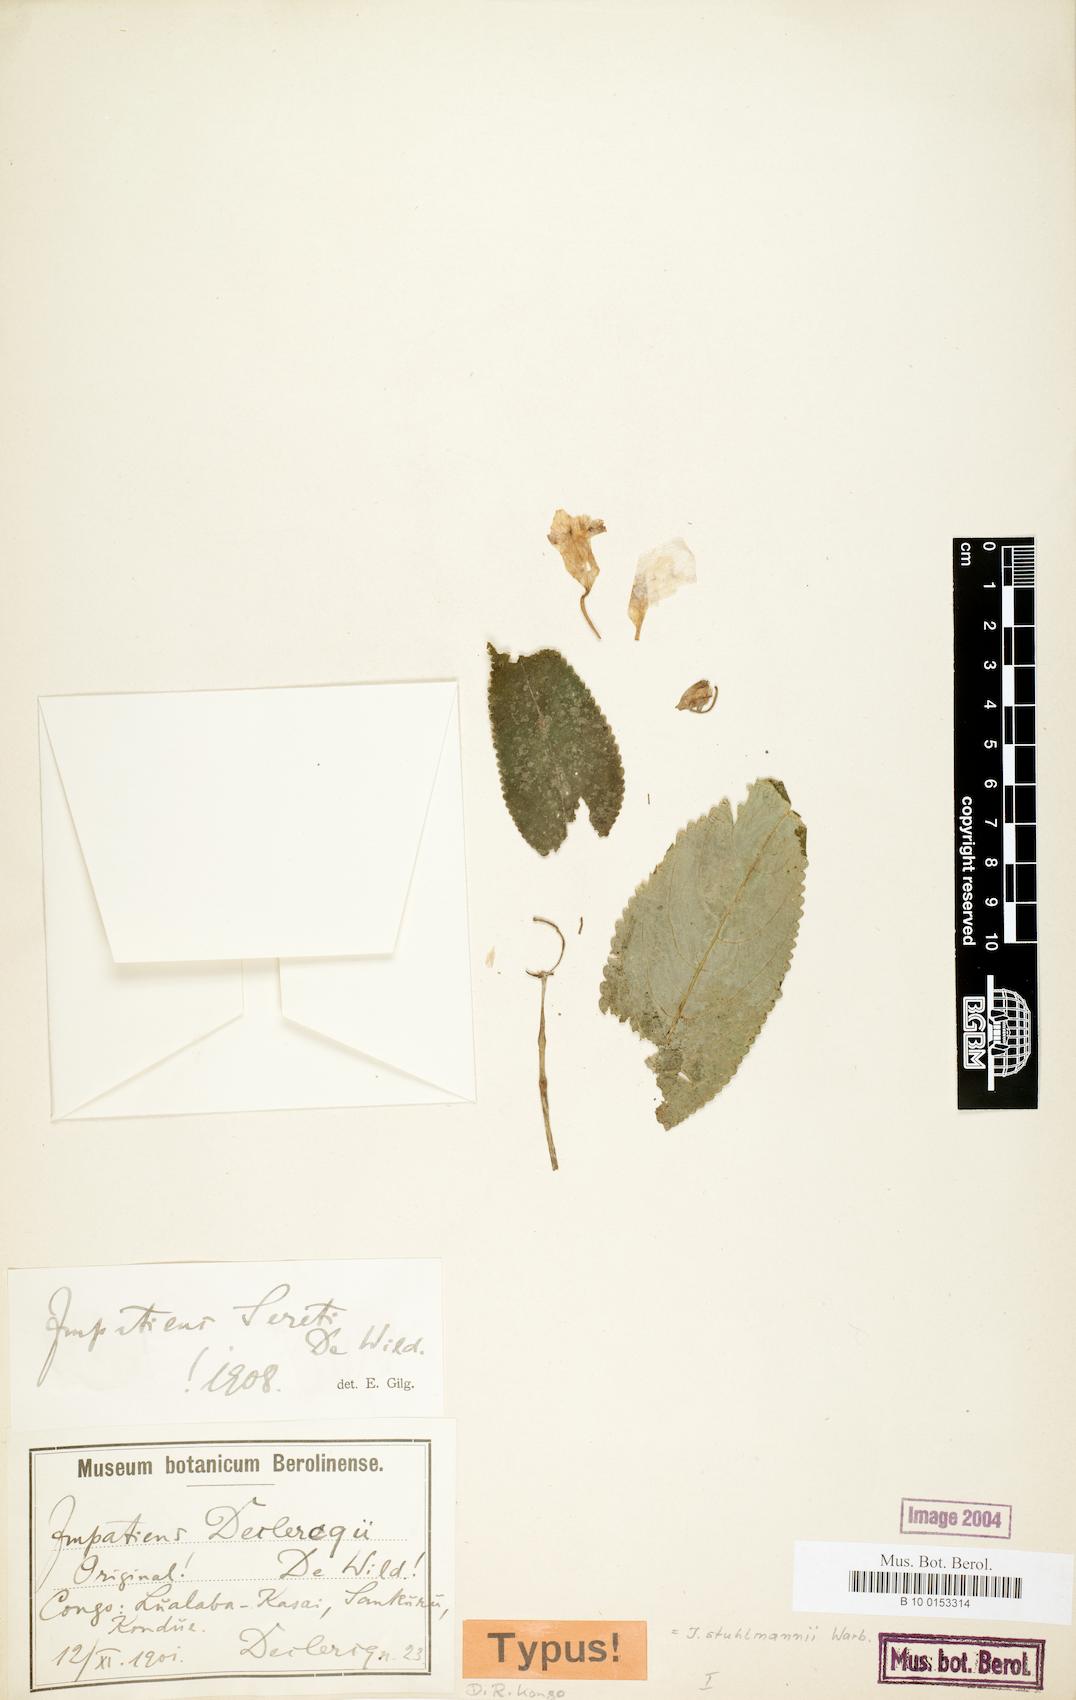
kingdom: Plantae
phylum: Tracheophyta
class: Magnoliopsida
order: Ericales
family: Balsaminaceae
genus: Impatiens
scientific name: Impatiens stuhlmannii
